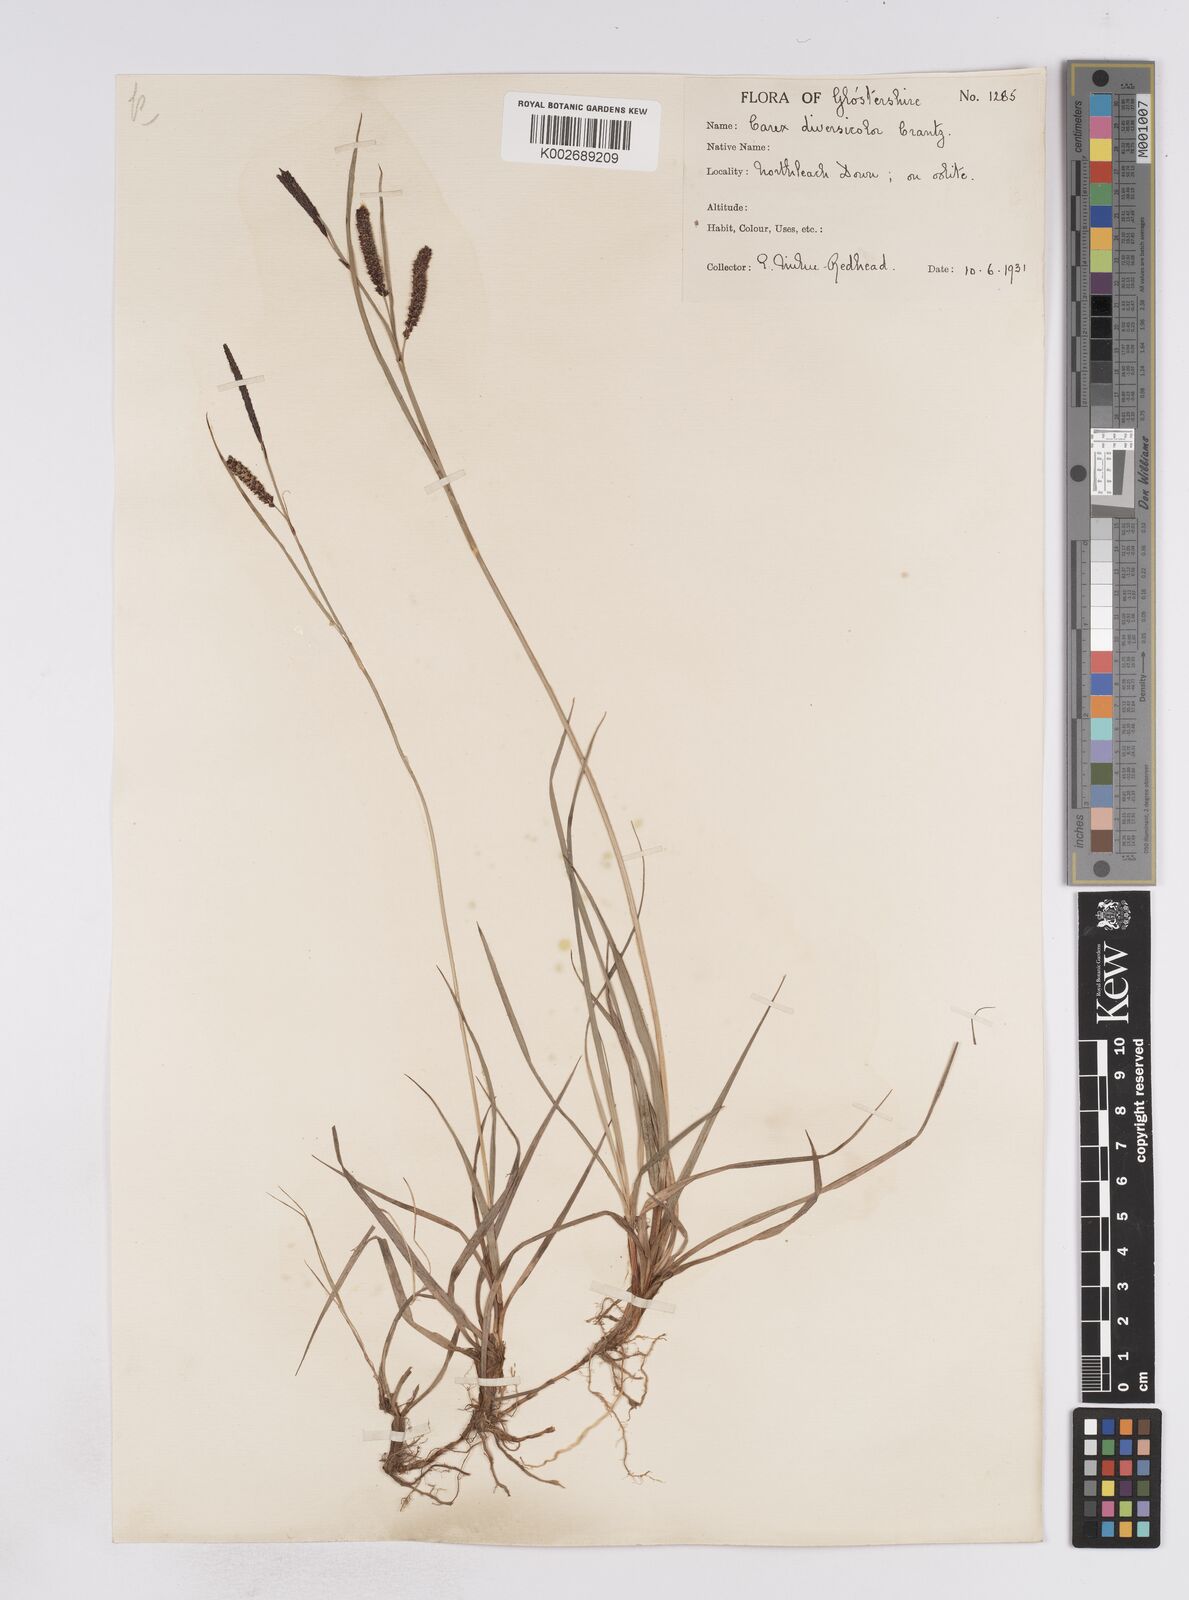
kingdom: Plantae
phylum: Tracheophyta
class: Liliopsida
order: Poales
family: Cyperaceae
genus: Carex
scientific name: Carex flacca
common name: Glaucous sedge
